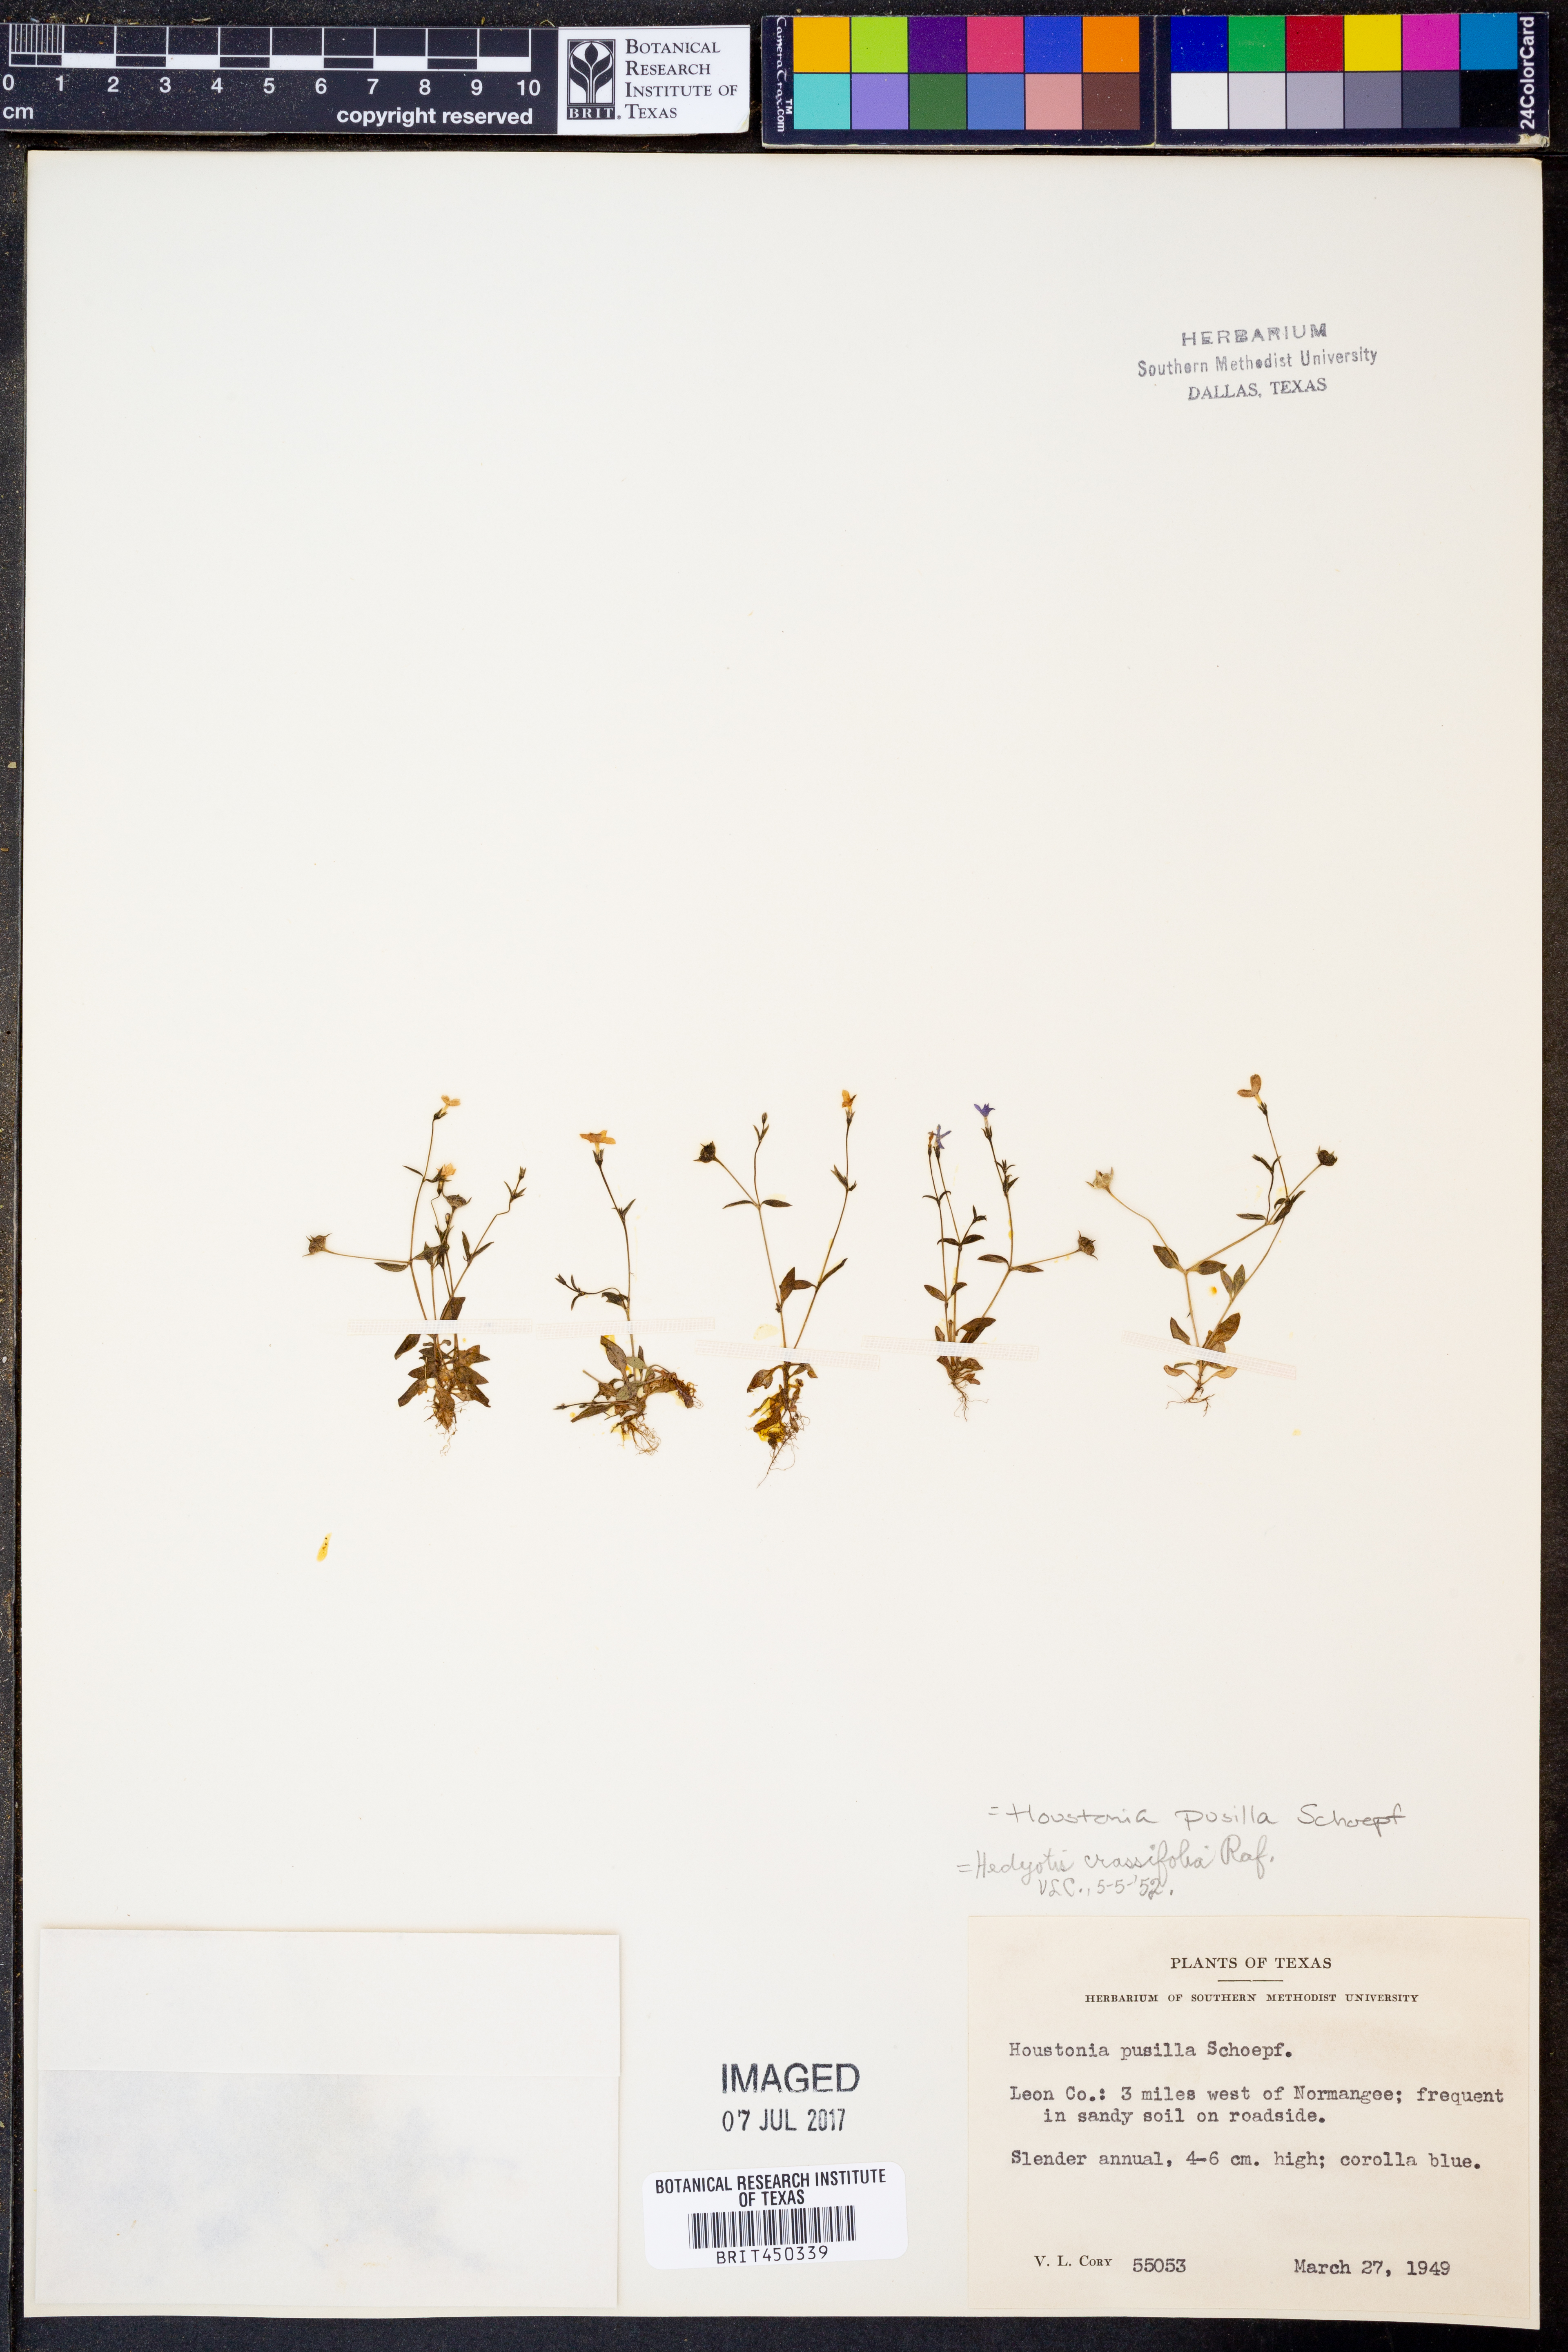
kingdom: Plantae
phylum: Tracheophyta
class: Magnoliopsida
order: Gentianales
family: Rubiaceae
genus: Houstonia
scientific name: Houstonia pusilla
